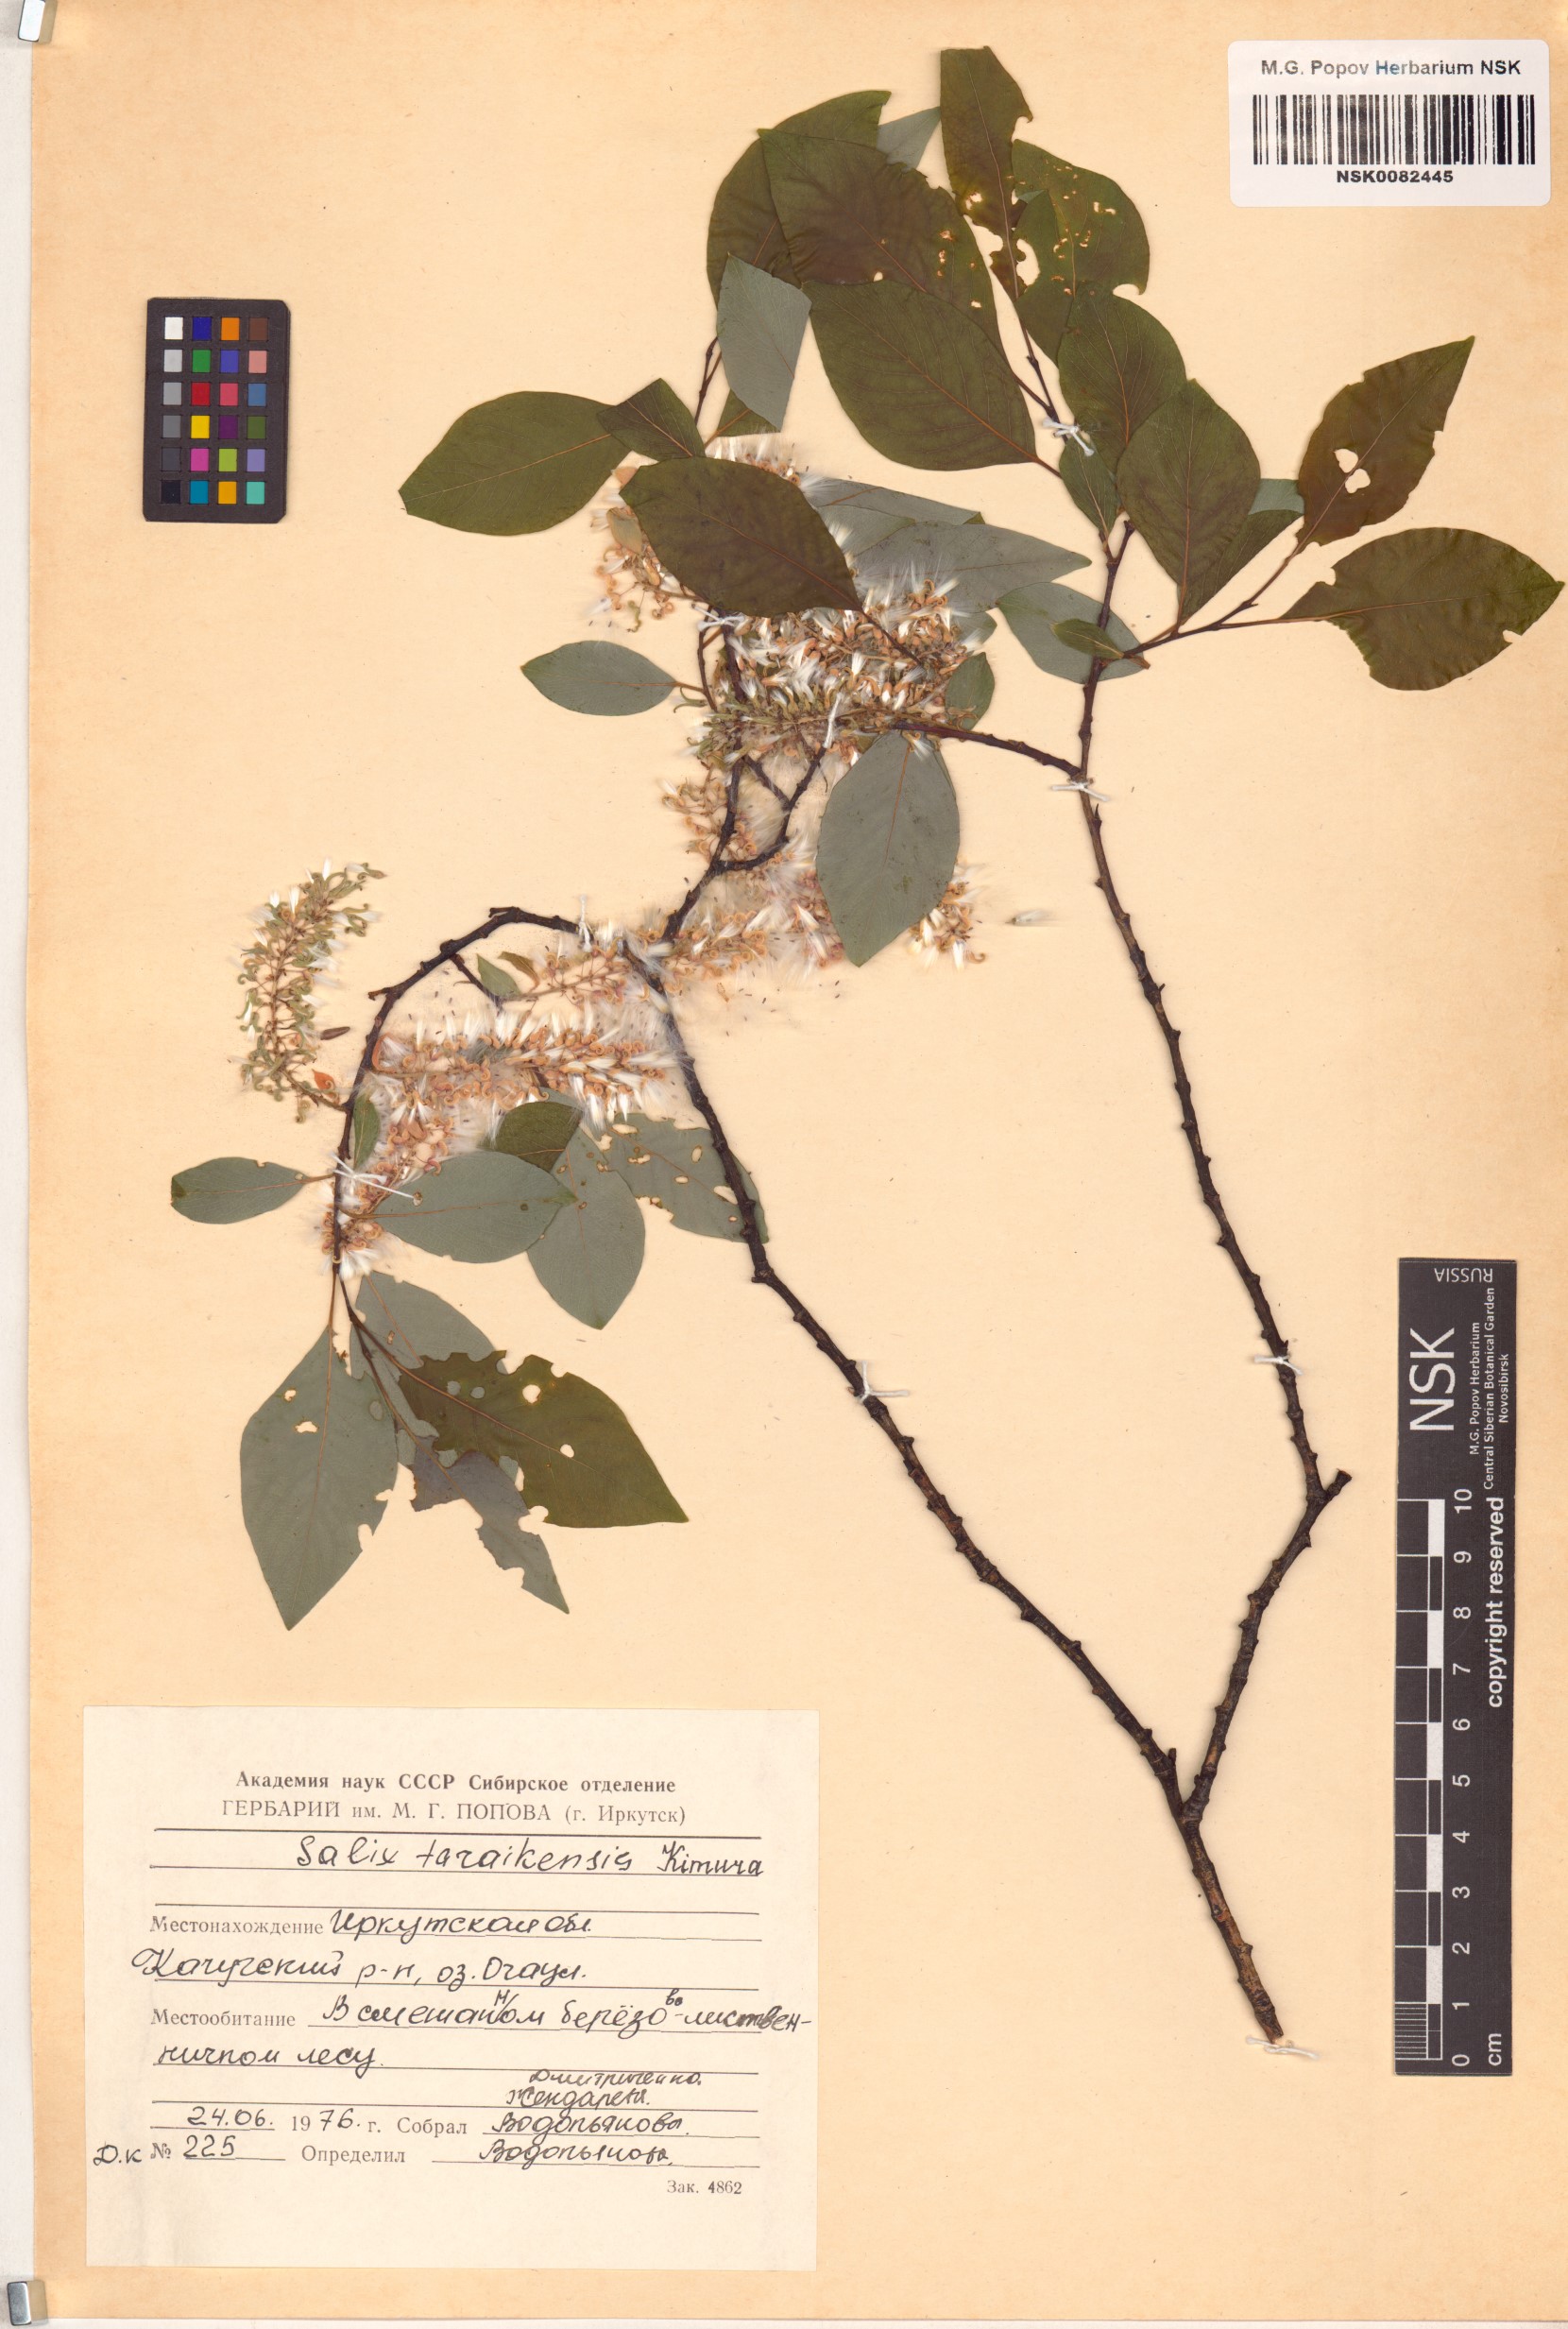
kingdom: Plantae
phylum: Tracheophyta
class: Magnoliopsida
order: Malpighiales
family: Salicaceae
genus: Salix
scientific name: Salix taraikensis
